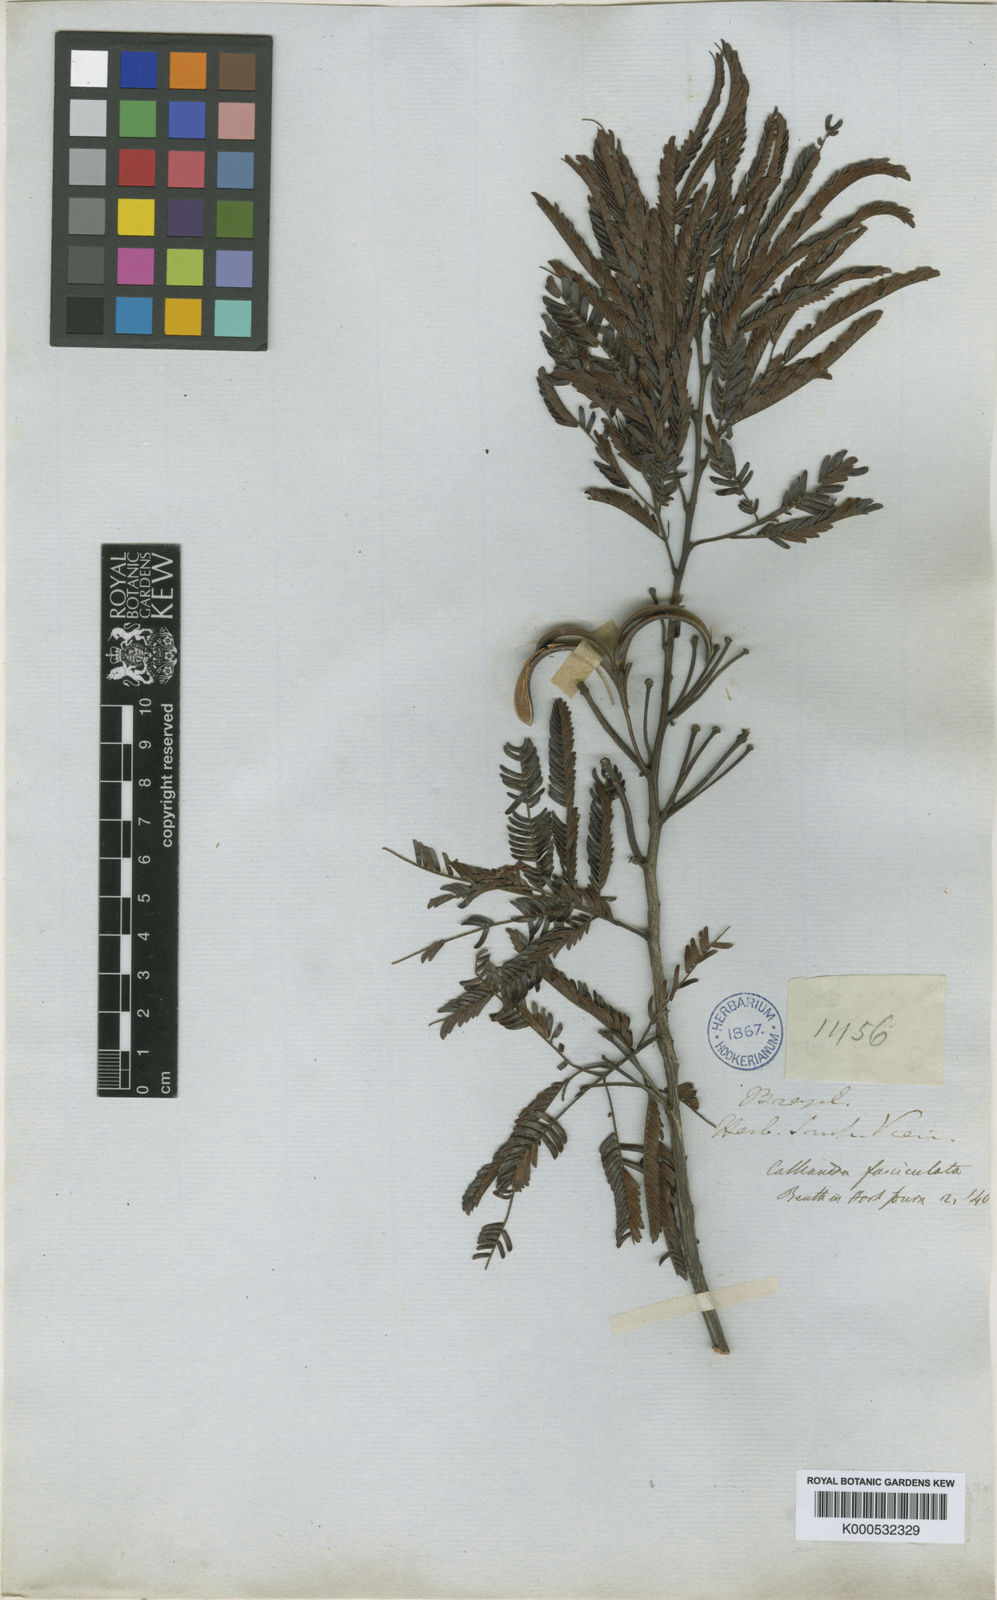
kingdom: Plantae
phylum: Tracheophyta
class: Magnoliopsida
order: Fabales
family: Fabaceae
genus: Calliandra
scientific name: Calliandra fasciculata
